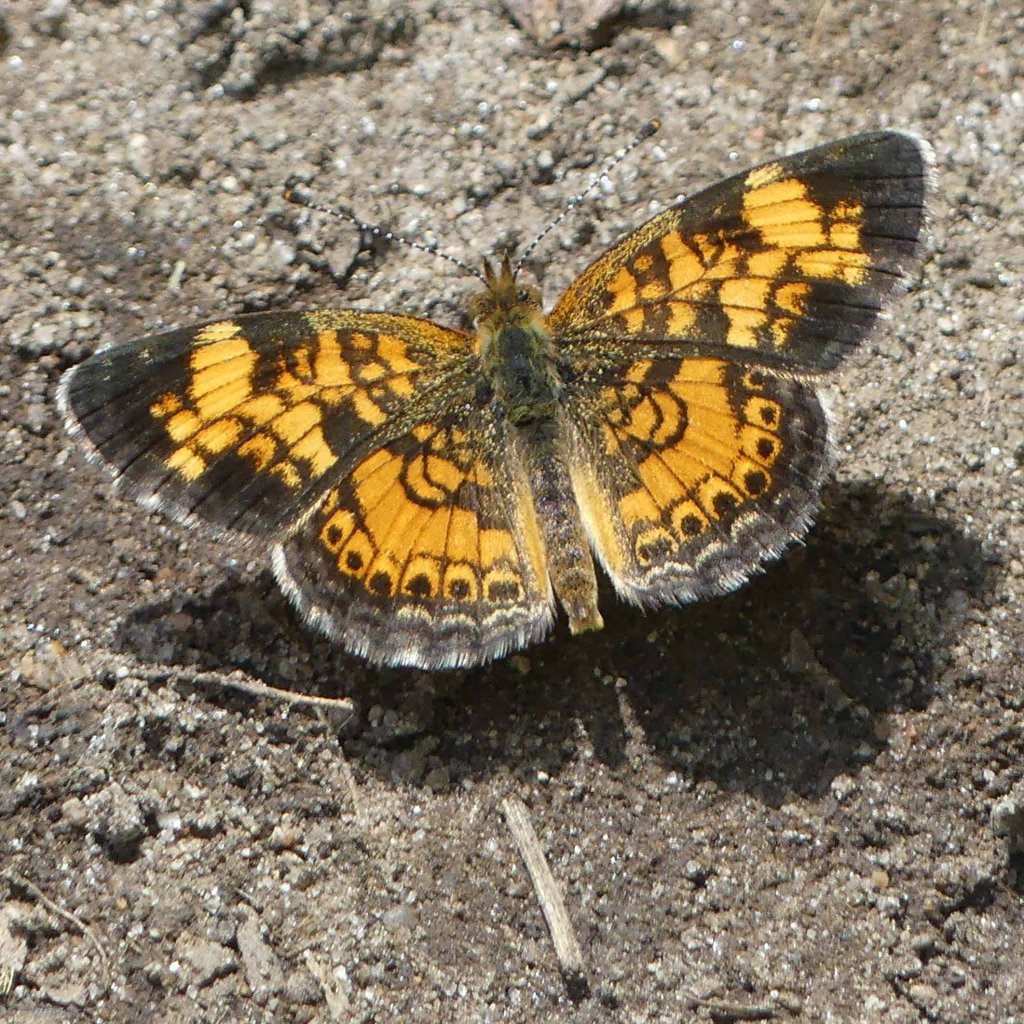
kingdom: Animalia
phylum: Arthropoda
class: Insecta
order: Lepidoptera
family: Nymphalidae
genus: Phyciodes
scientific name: Phyciodes tharos
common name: Pearl Crescent
